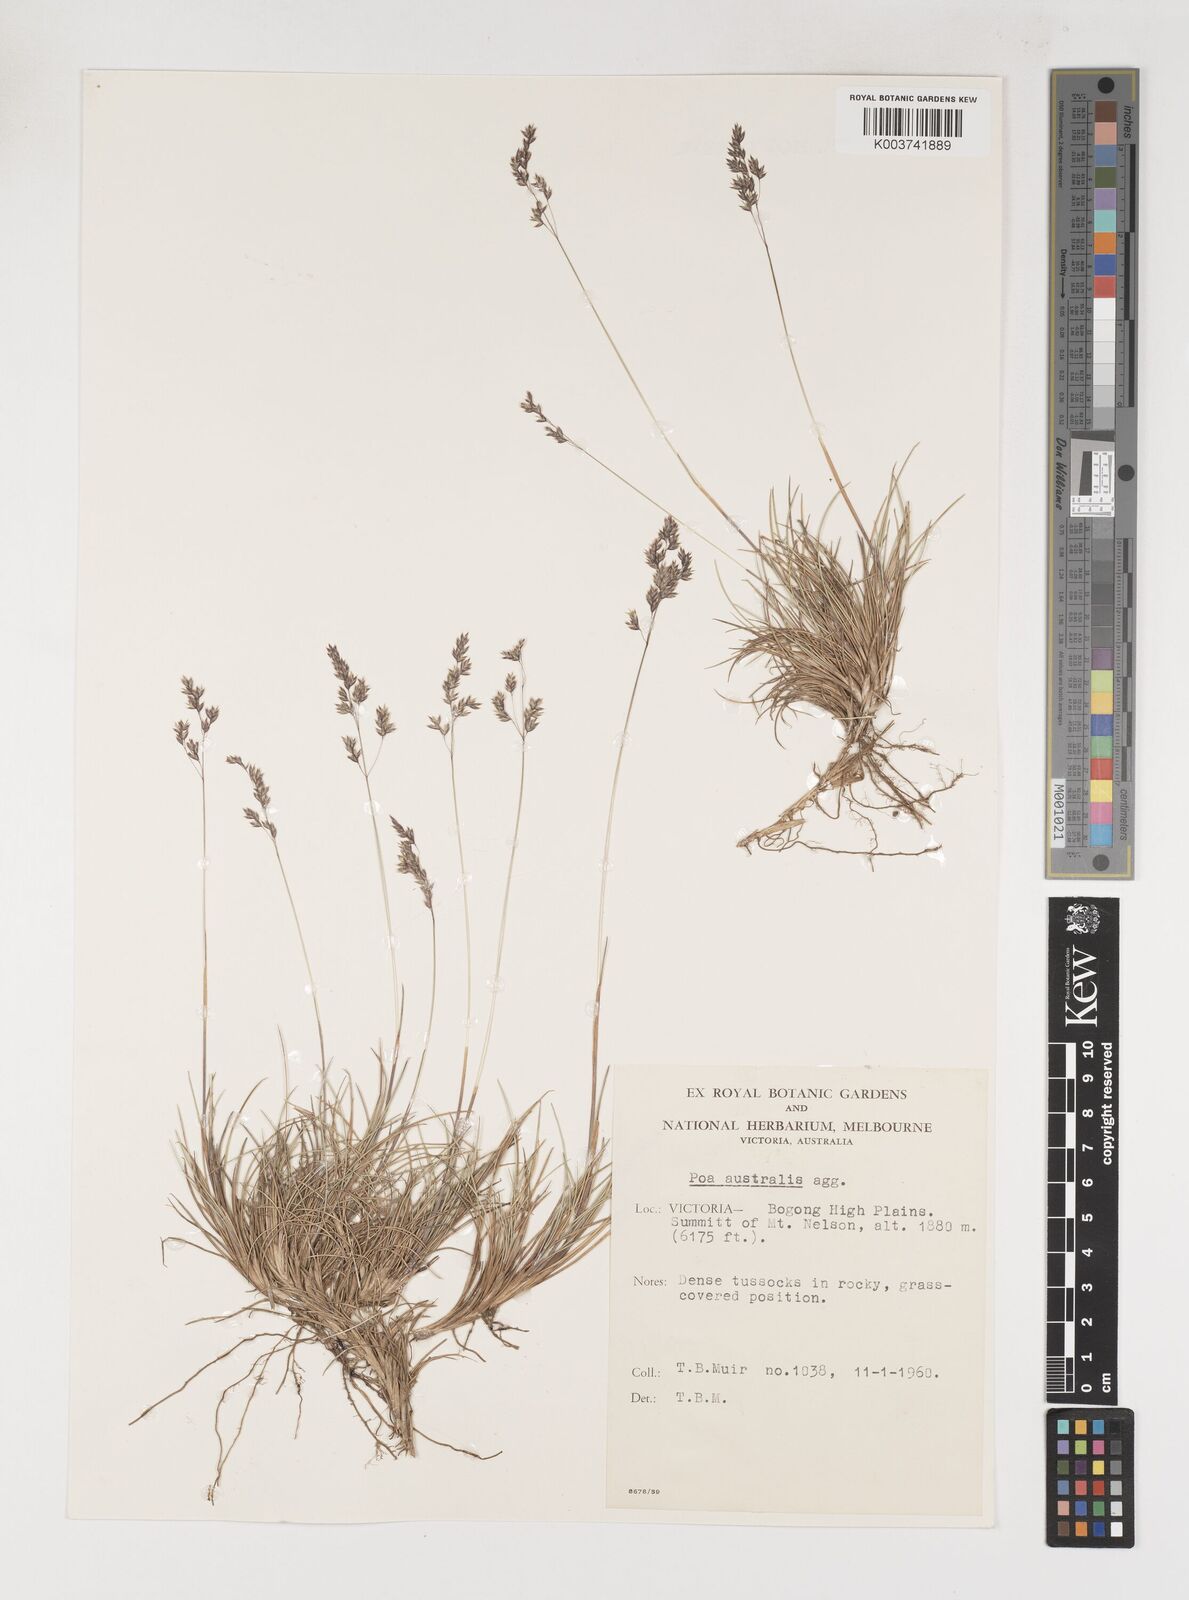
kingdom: Plantae
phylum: Tracheophyta
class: Liliopsida
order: Poales
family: Poaceae
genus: Poa
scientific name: Poa sieberiana
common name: Tussock poa
